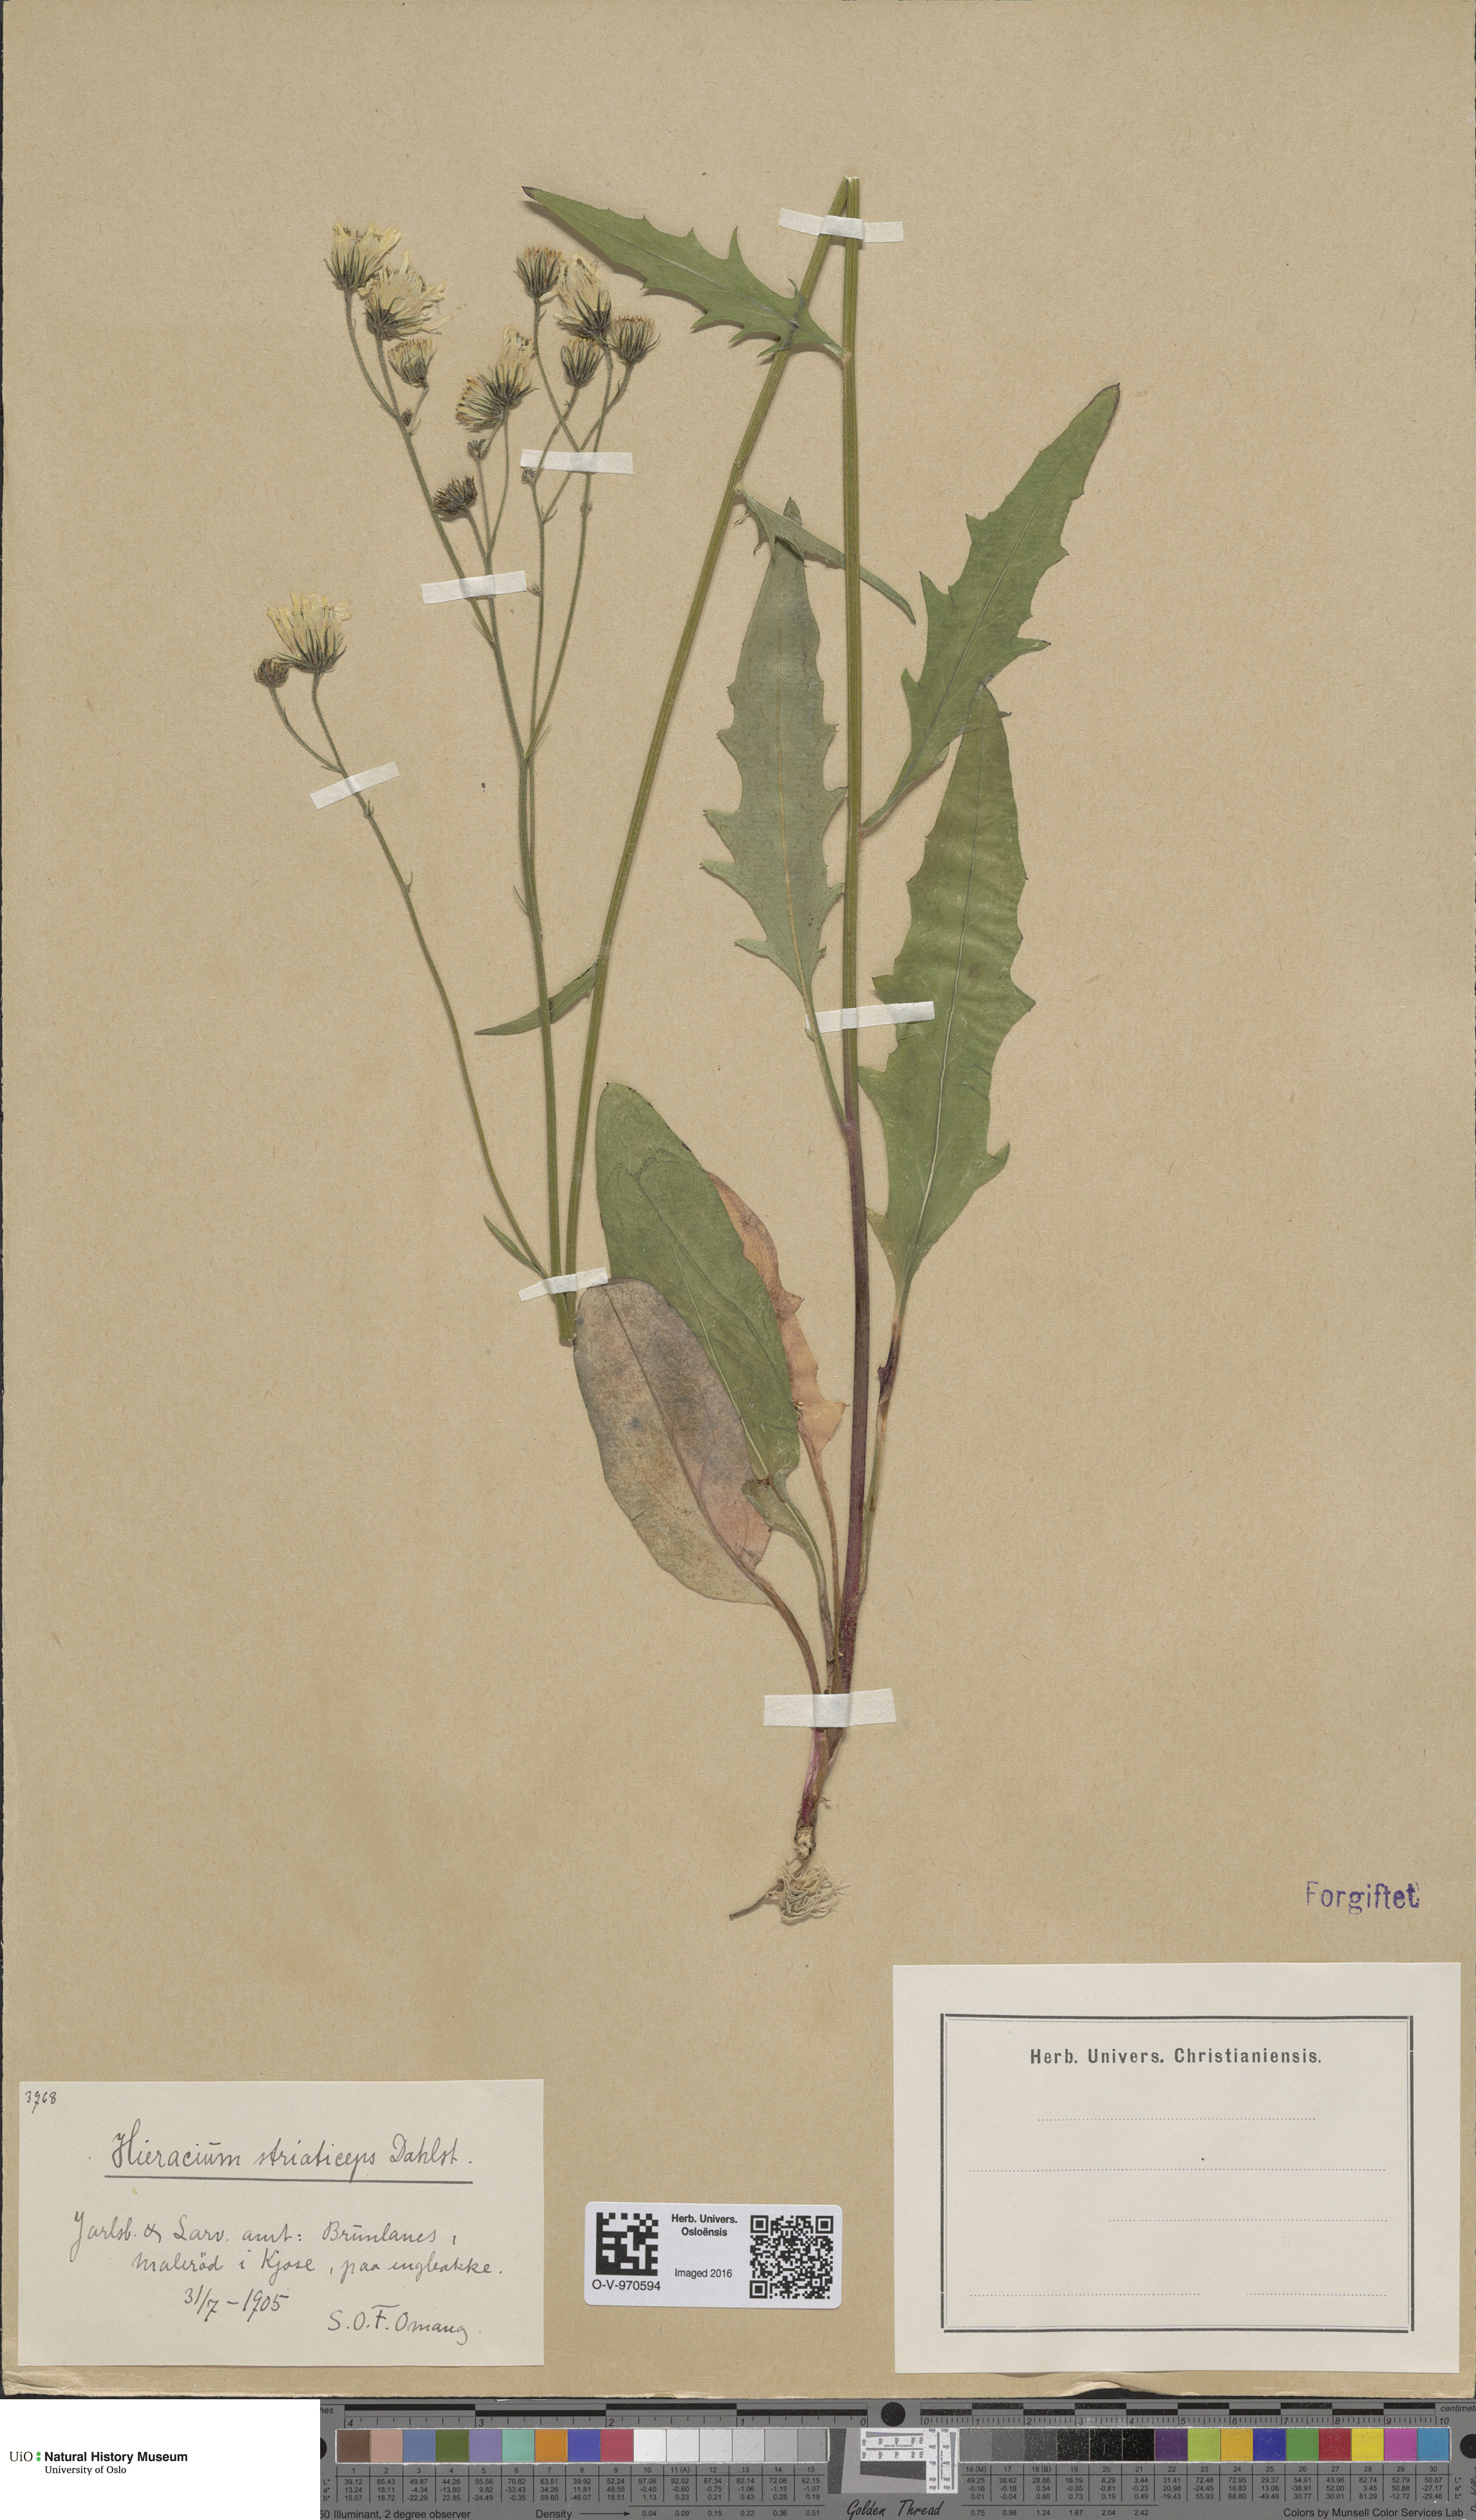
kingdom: Plantae
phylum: Tracheophyta
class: Magnoliopsida
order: Asterales
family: Asteraceae
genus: Hieracium
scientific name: Hieracium
